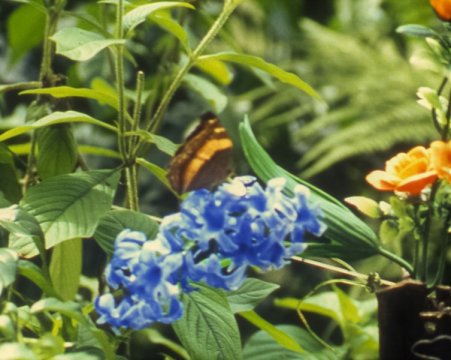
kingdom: Animalia
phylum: Arthropoda
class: Insecta
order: Lepidoptera
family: Nymphalidae
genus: Yoma
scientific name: Yoma sabina
